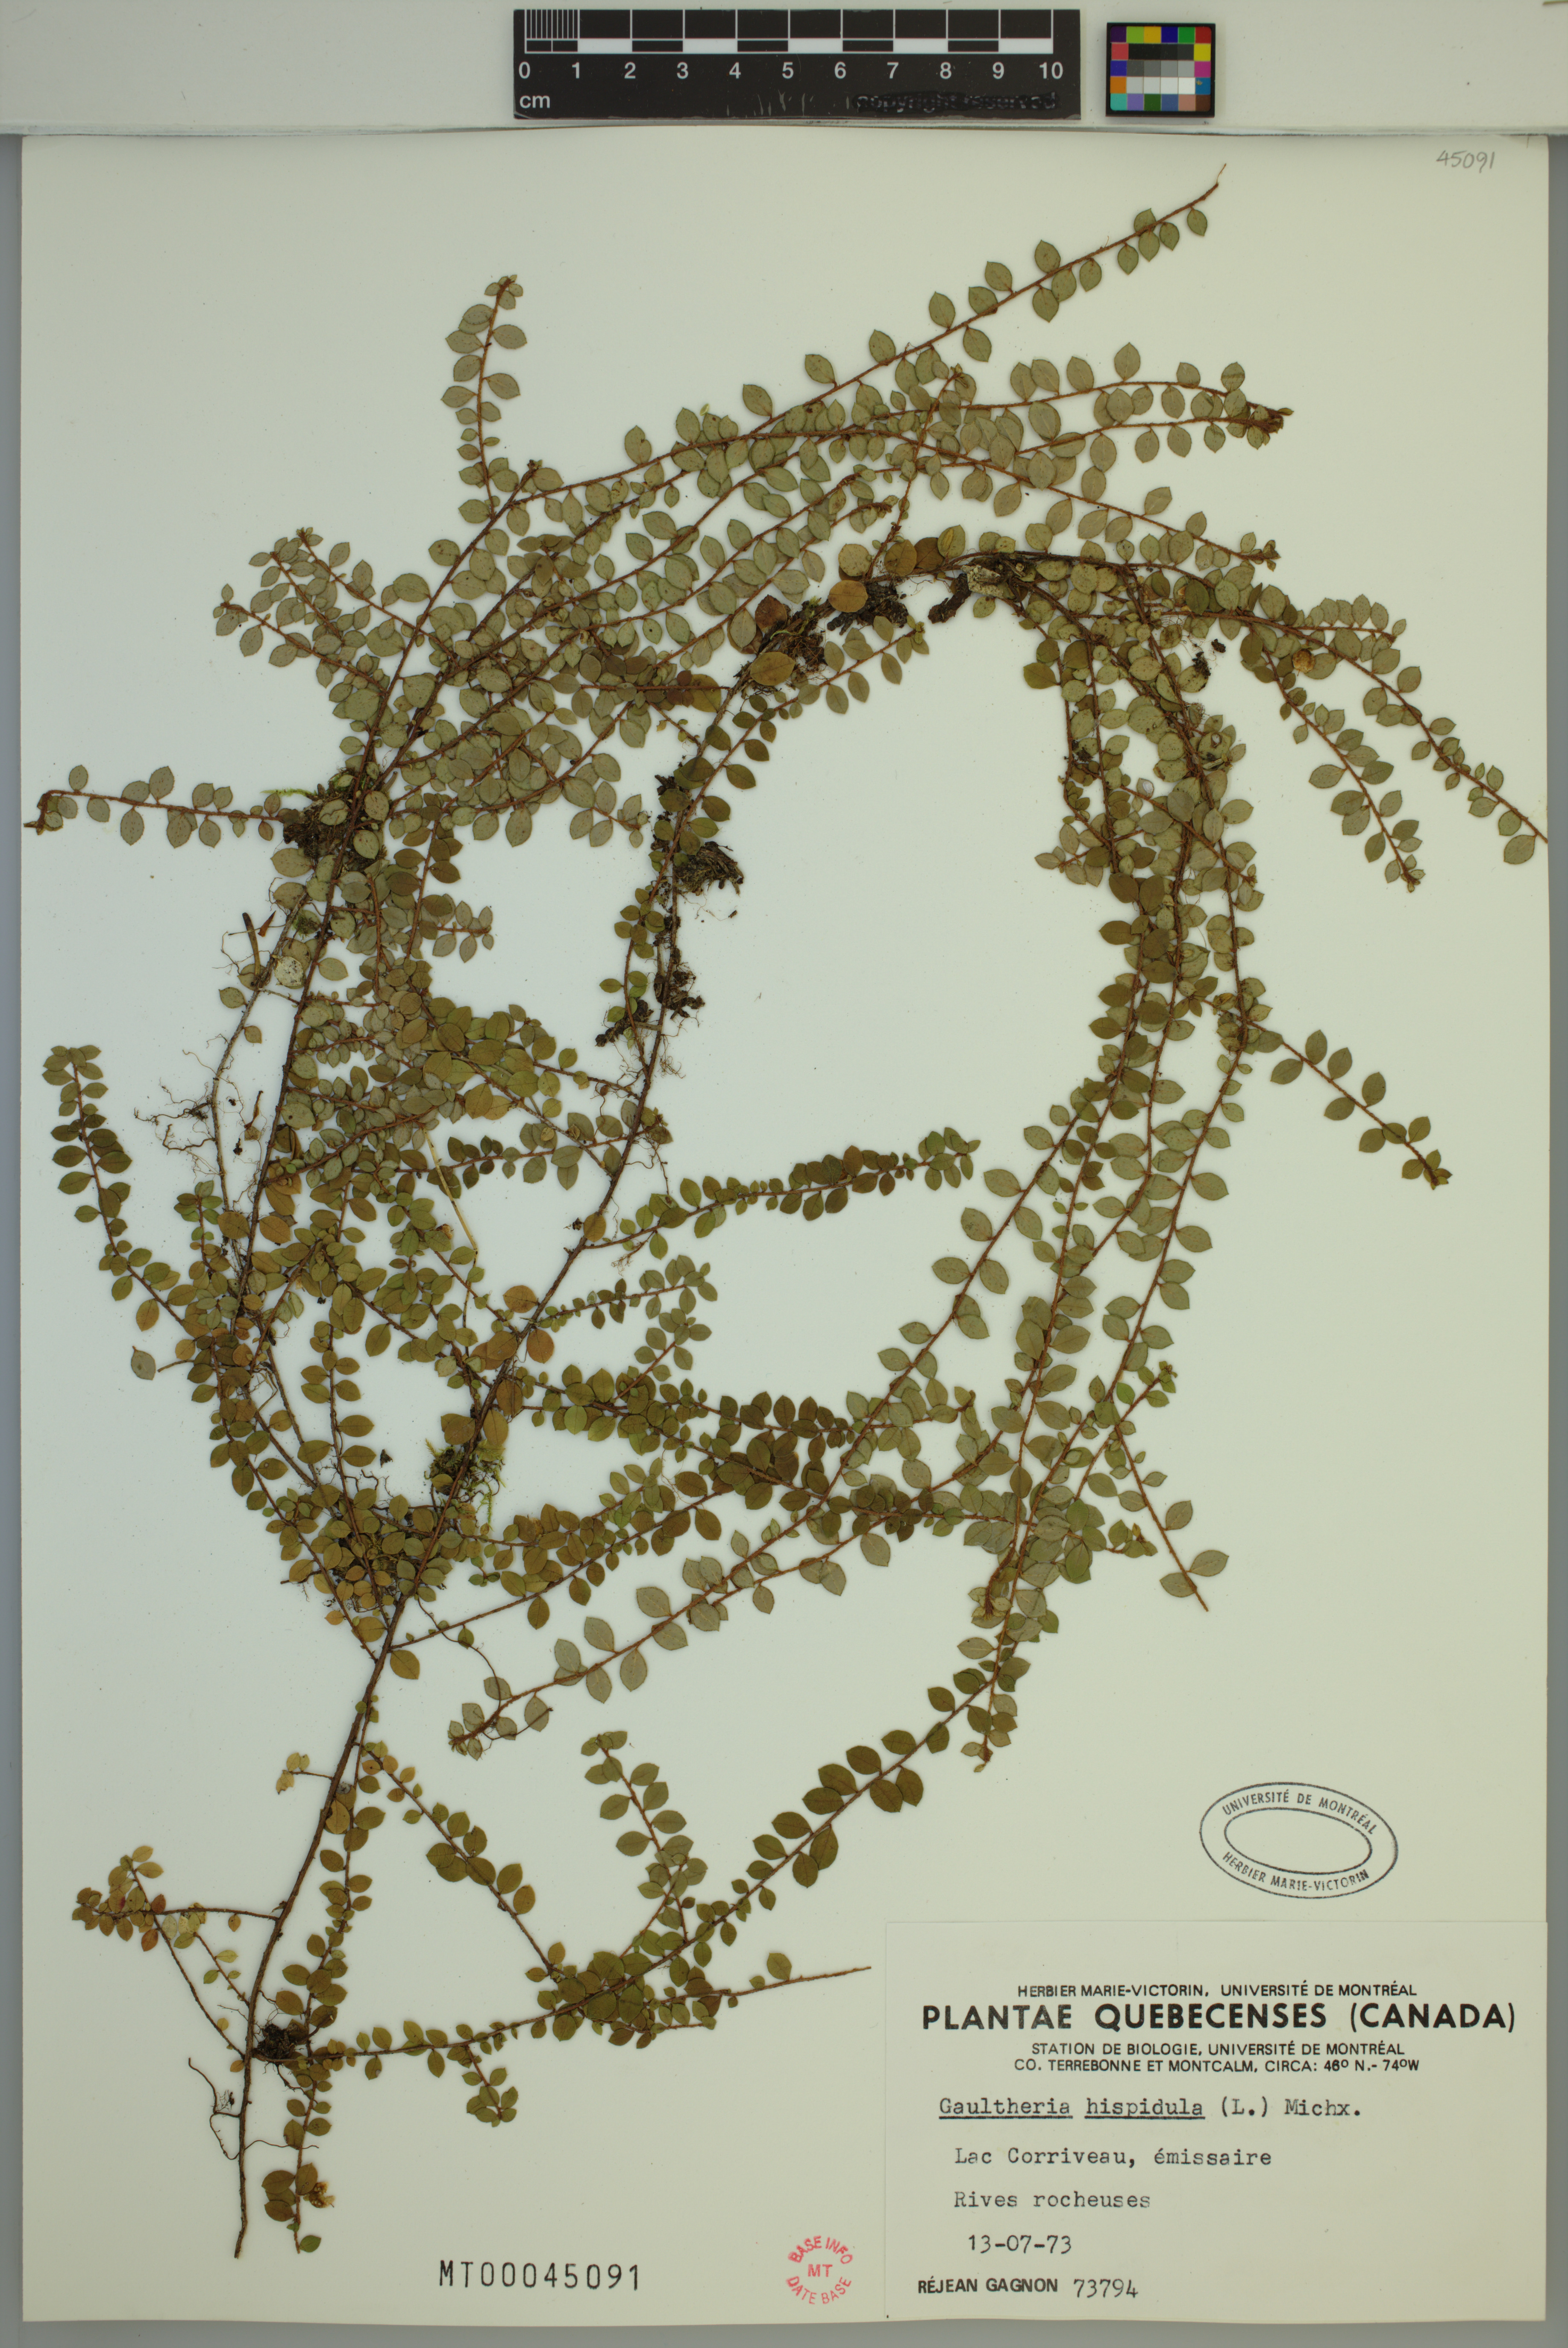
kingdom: Plantae
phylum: Tracheophyta
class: Magnoliopsida
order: Ericales
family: Ericaceae
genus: Gaultheria
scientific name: Gaultheria hispidula
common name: Cancer wintergreen
